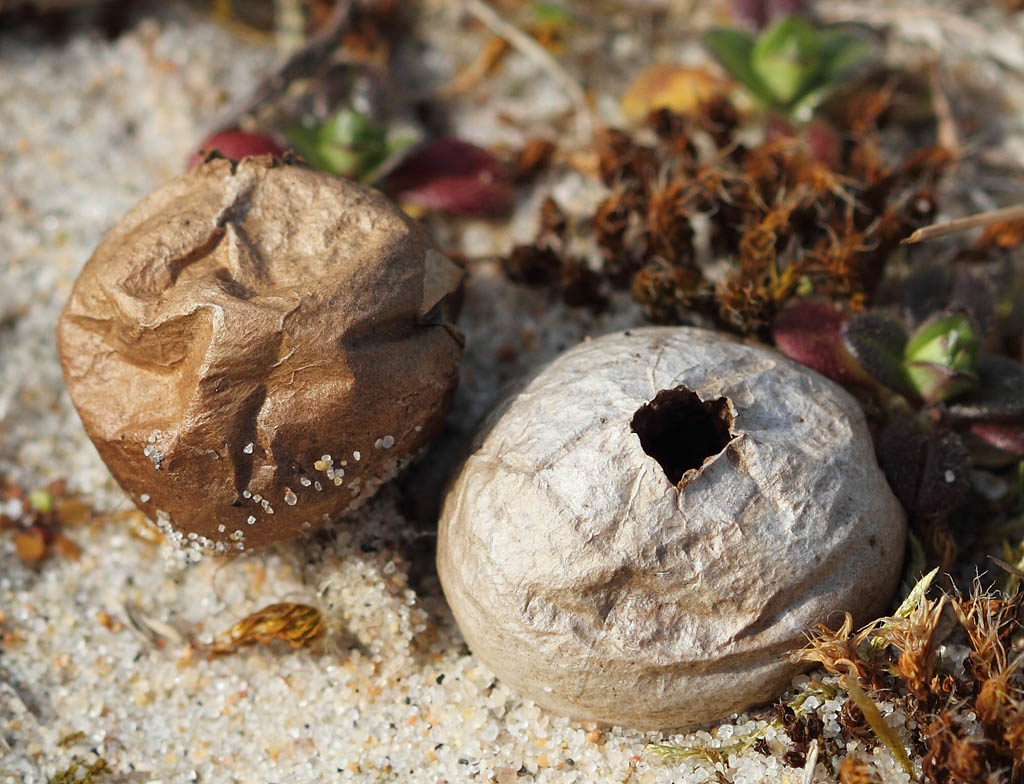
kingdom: Fungi
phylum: Basidiomycota
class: Agaricomycetes
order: Agaricales
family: Lycoperdaceae
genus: Bovista
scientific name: Bovista aestivalis
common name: klit-bovist
